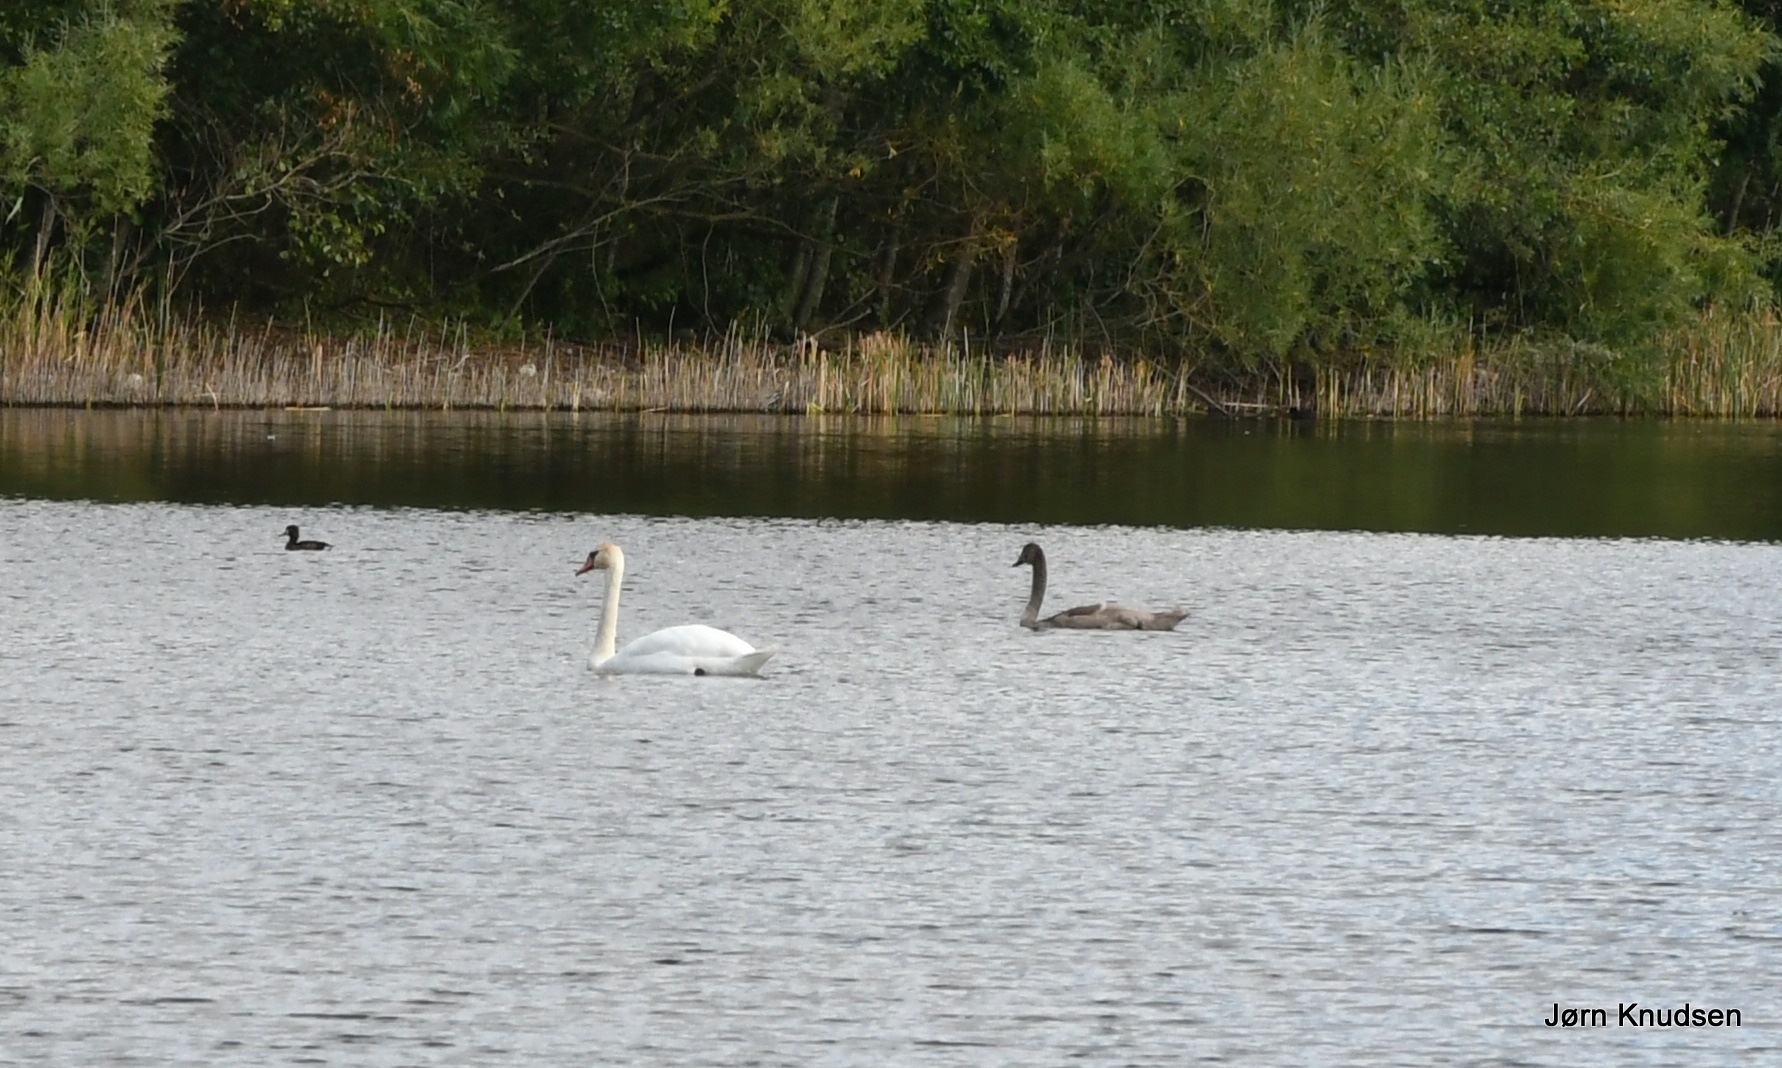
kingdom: Animalia
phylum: Chordata
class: Aves
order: Anseriformes
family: Anatidae
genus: Cygnus
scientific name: Cygnus olor
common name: Knopsvane
